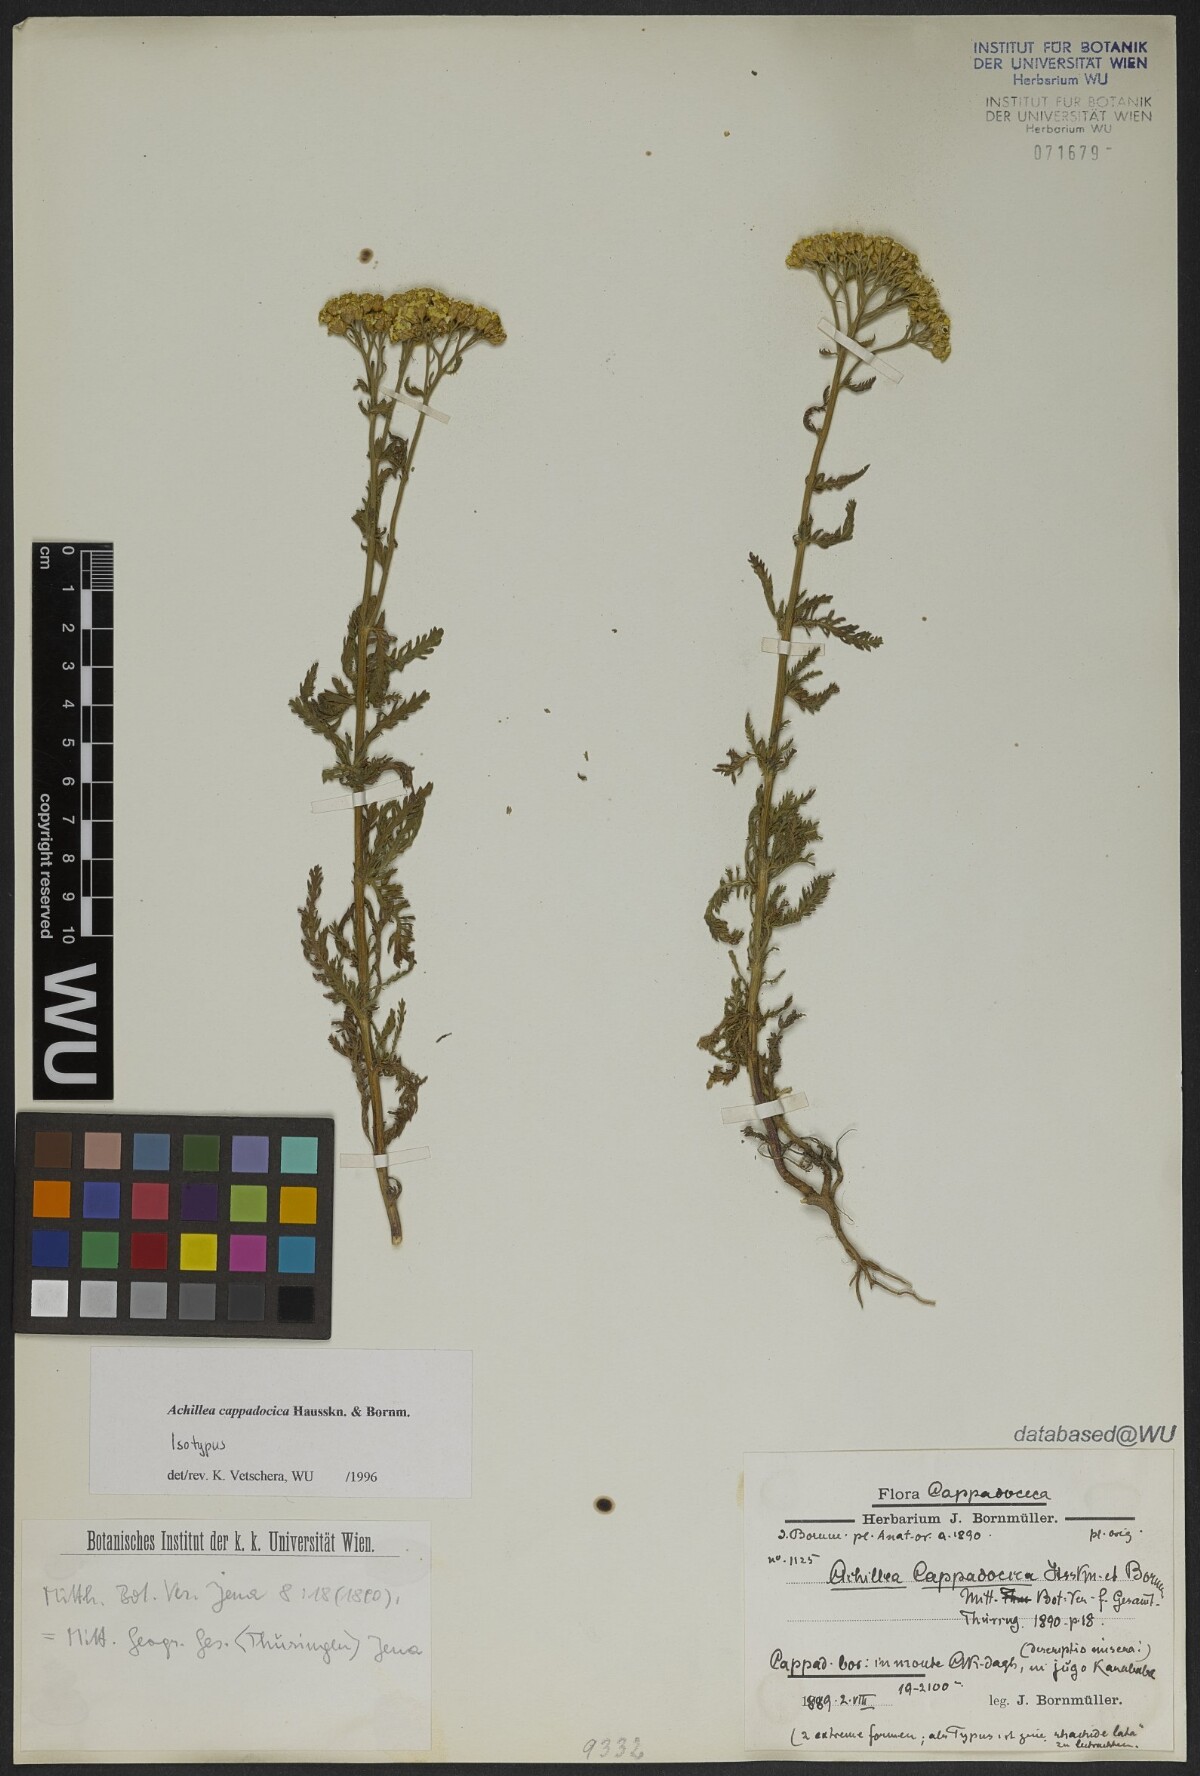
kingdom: Plantae
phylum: Tracheophyta
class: Magnoliopsida
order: Asterales
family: Asteraceae
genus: Achillea
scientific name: Achillea cappadocica
